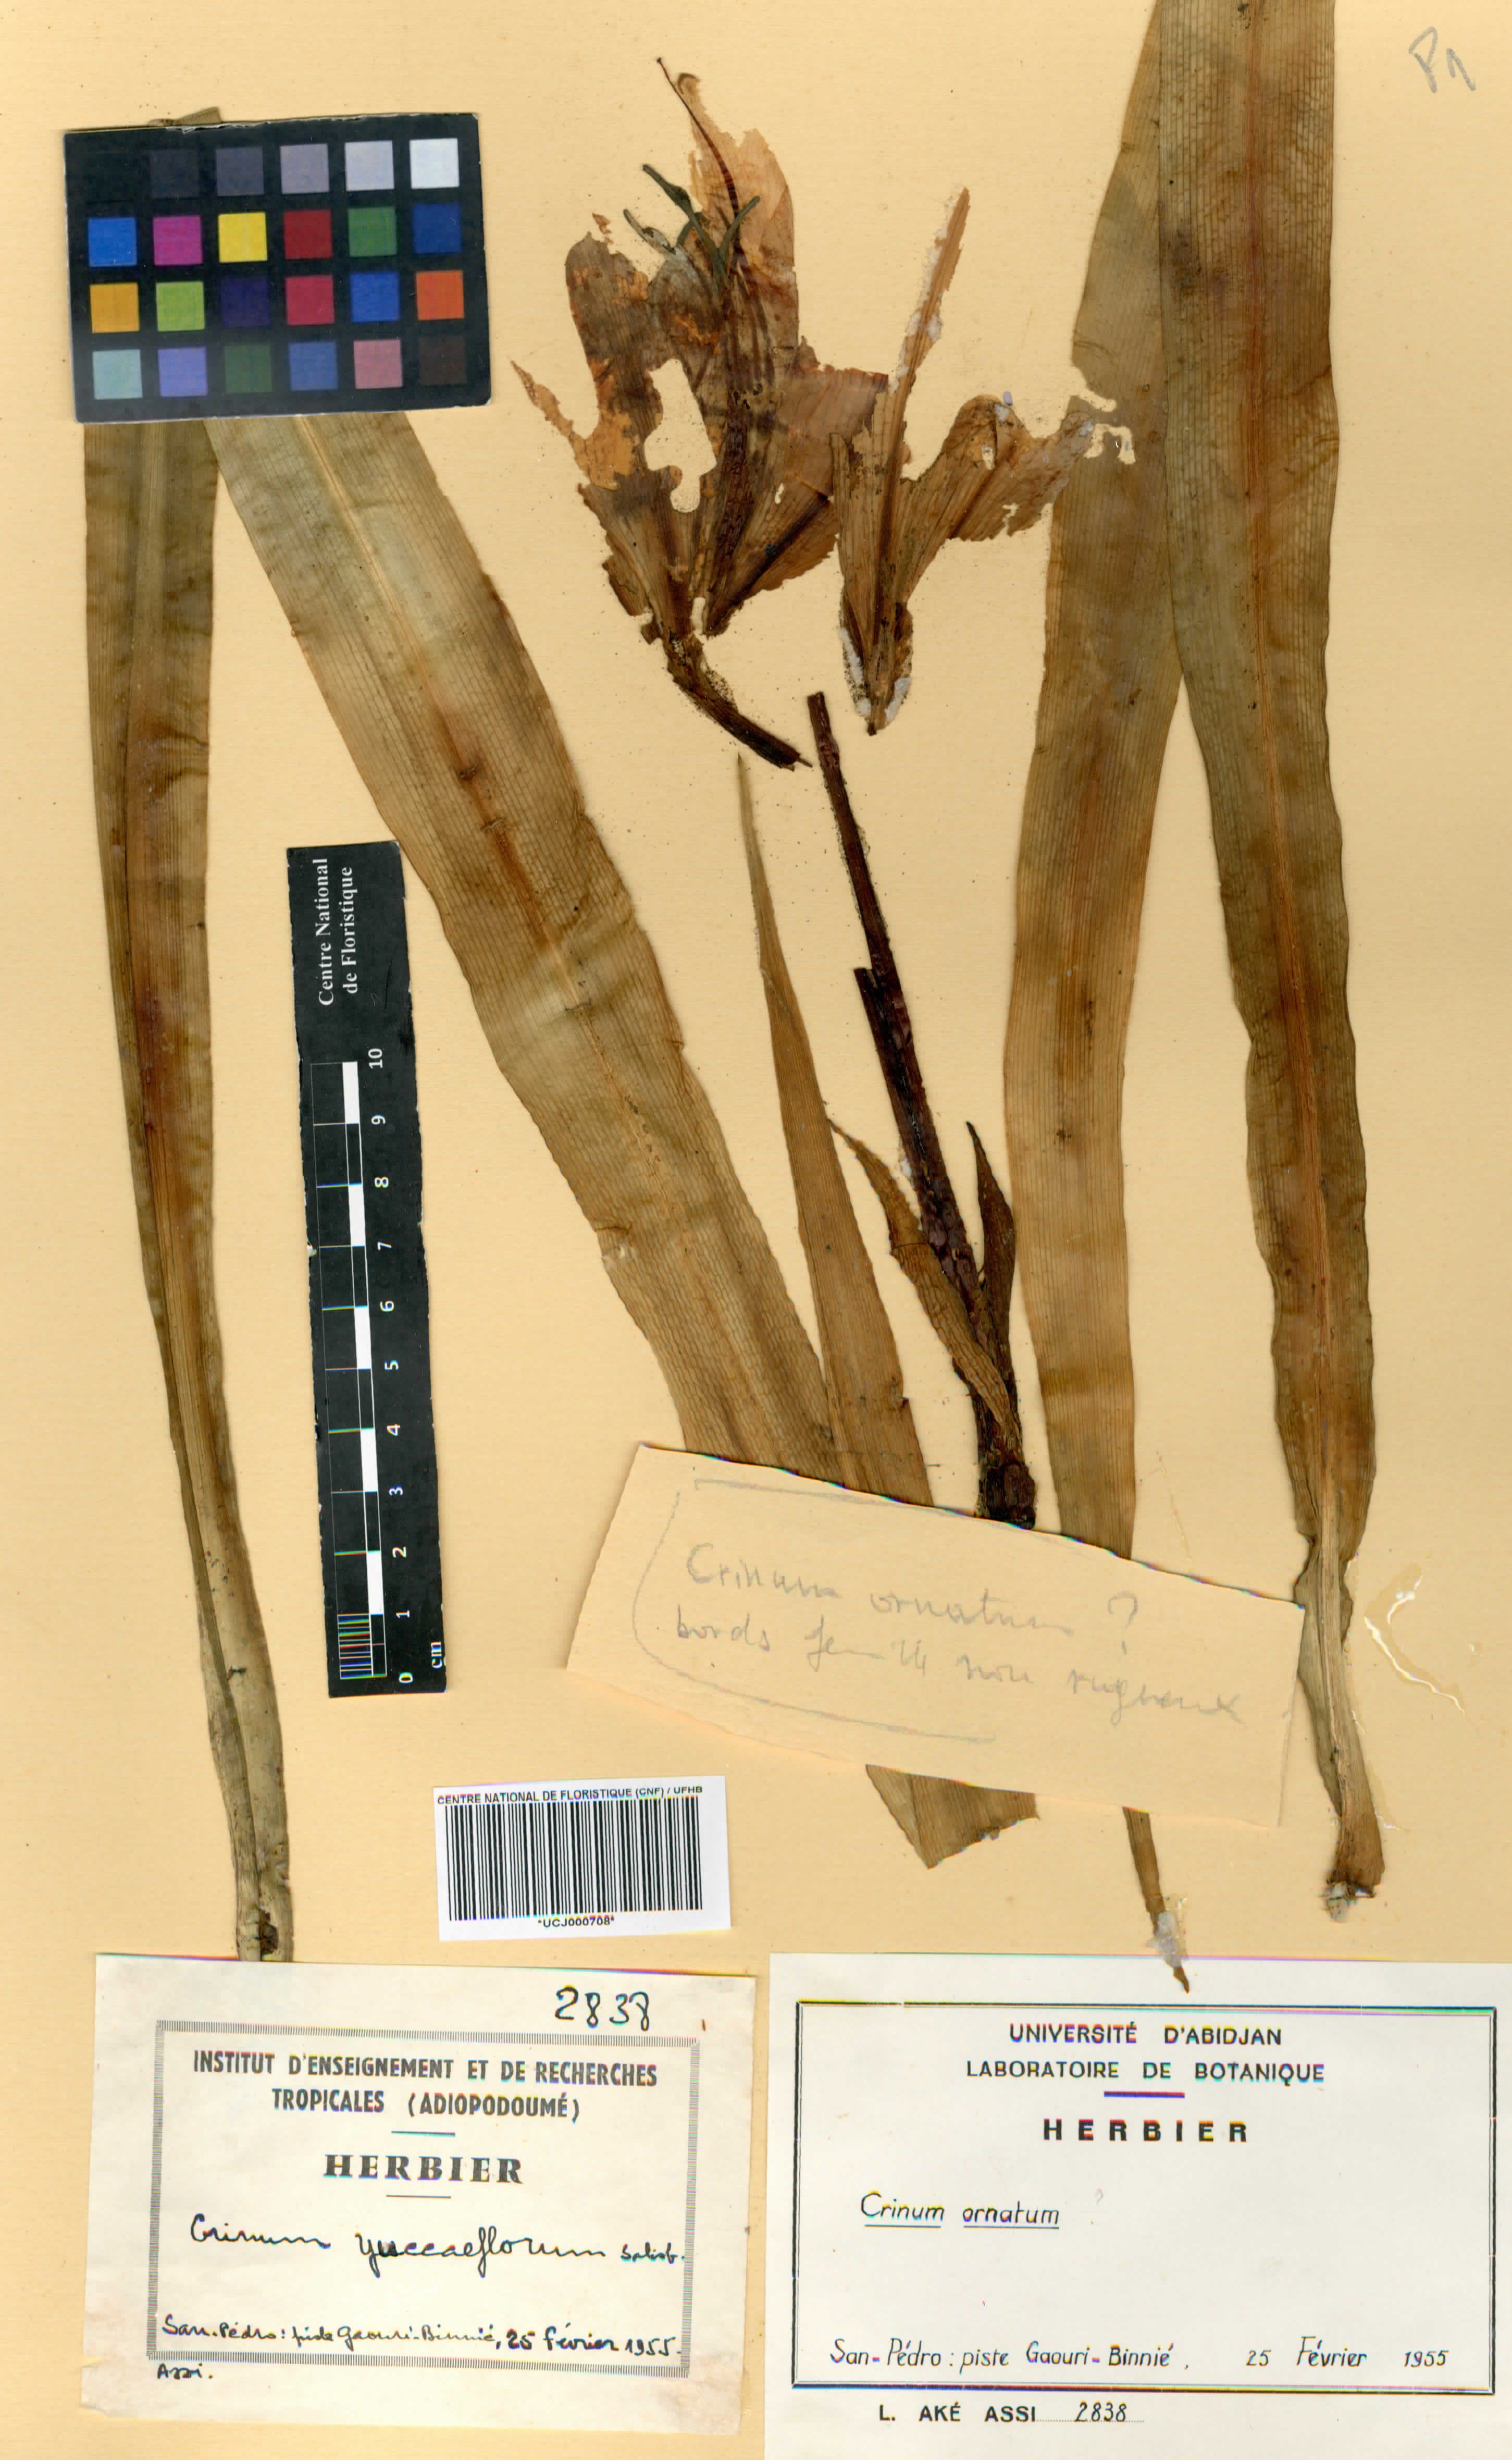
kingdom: Plantae
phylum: Tracheophyta
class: Liliopsida
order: Asparagales
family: Amaryllidaceae
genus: Crinum
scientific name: Crinum ornatum
